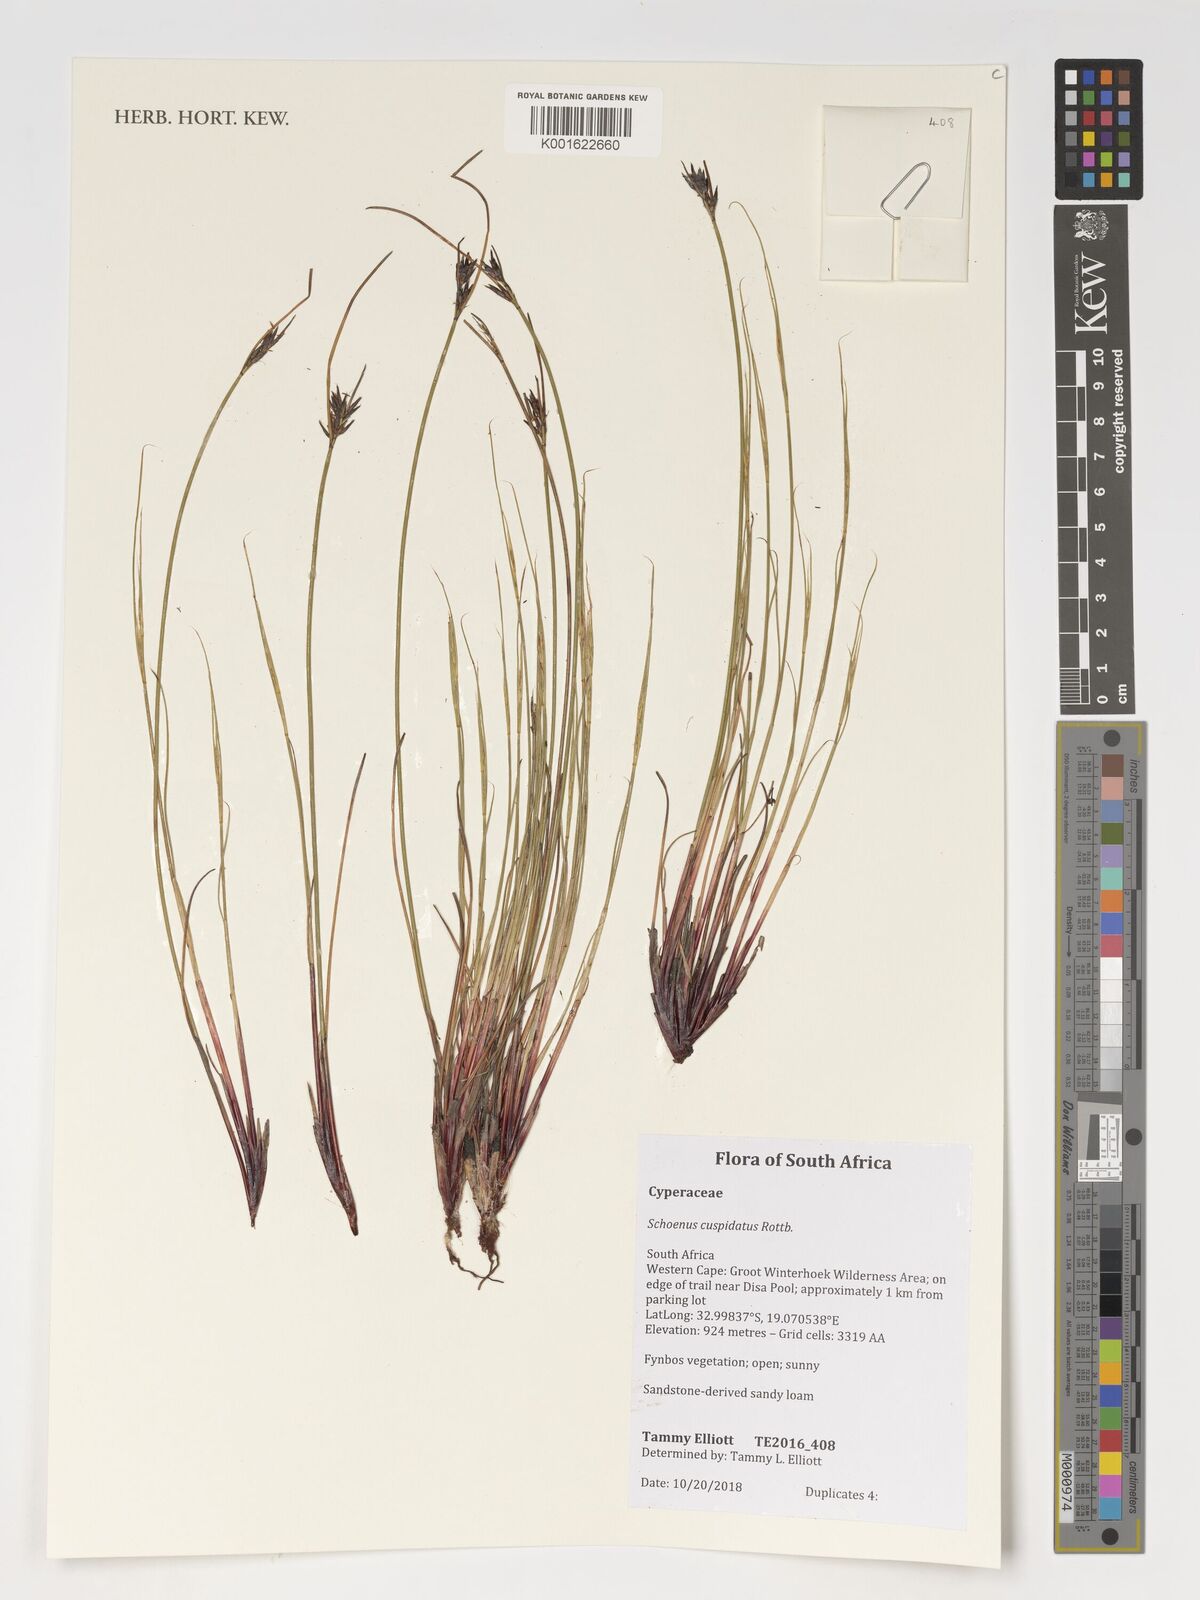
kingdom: Plantae
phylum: Tracheophyta
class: Liliopsida
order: Poales
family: Cyperaceae
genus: Schoenus
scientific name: Schoenus cuspidatus
